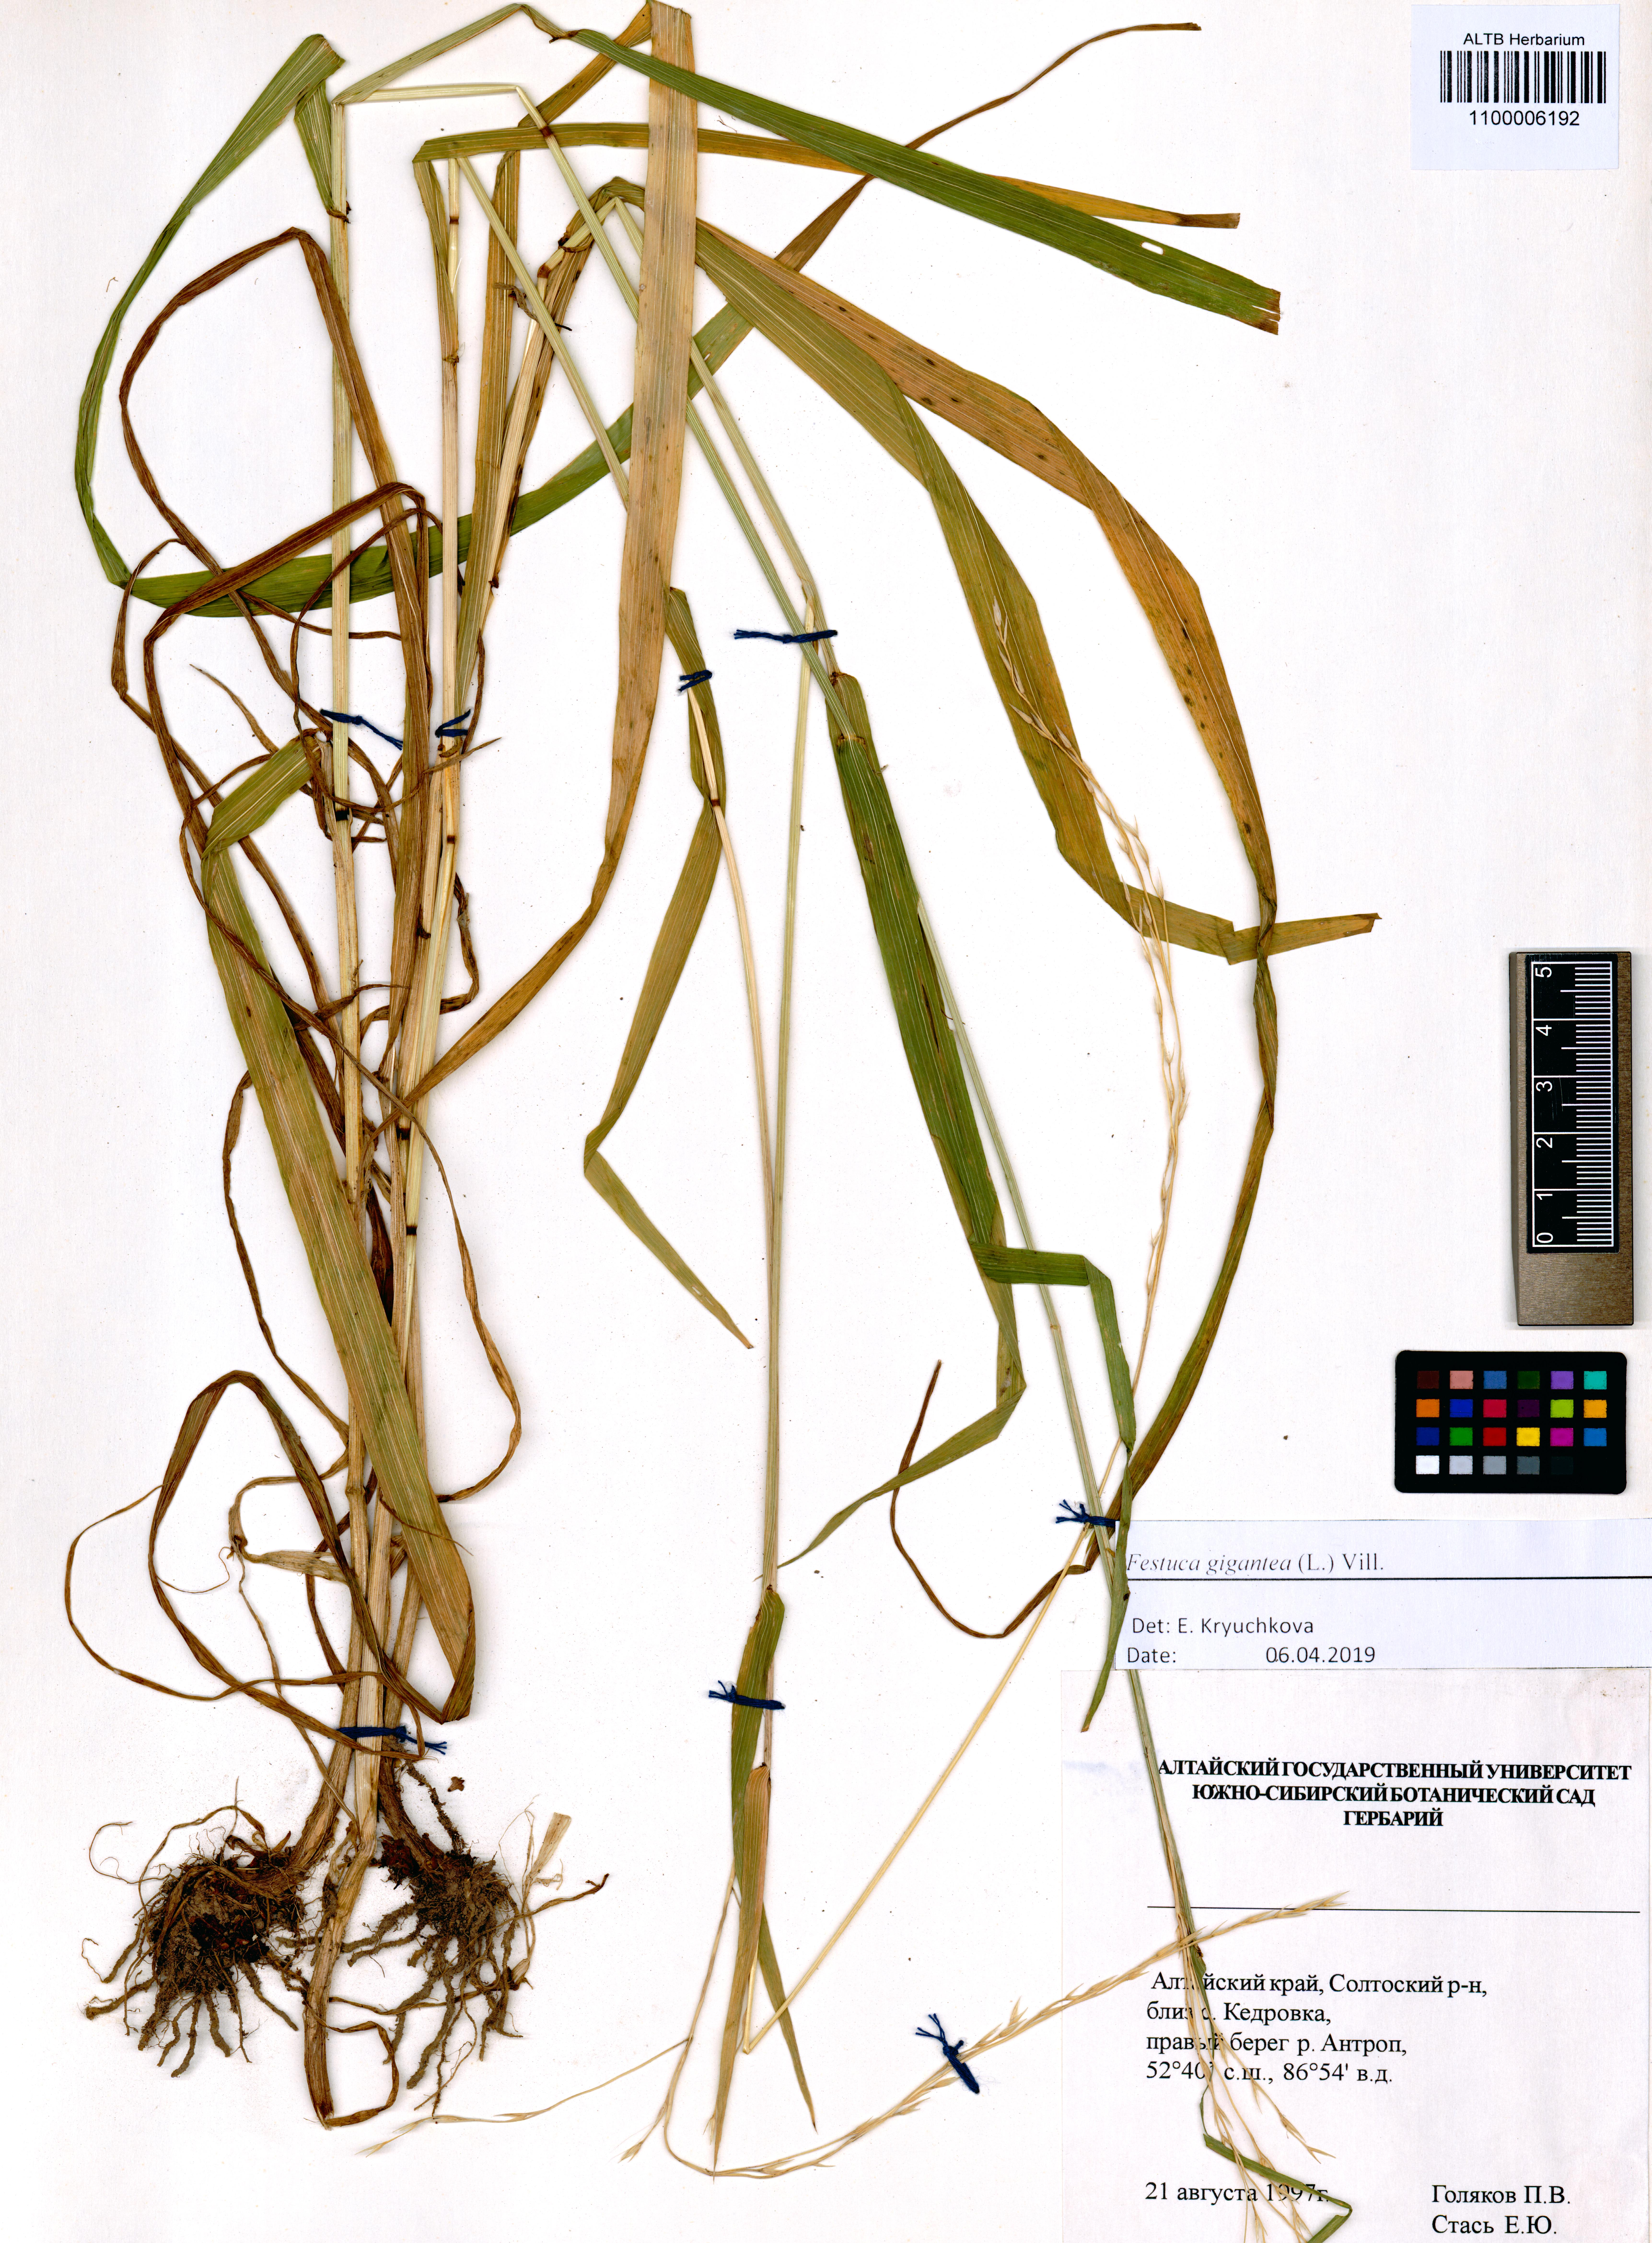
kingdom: Plantae
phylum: Tracheophyta
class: Liliopsida
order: Poales
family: Poaceae
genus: Lolium
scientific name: Lolium giganteum
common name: Giant fescue
